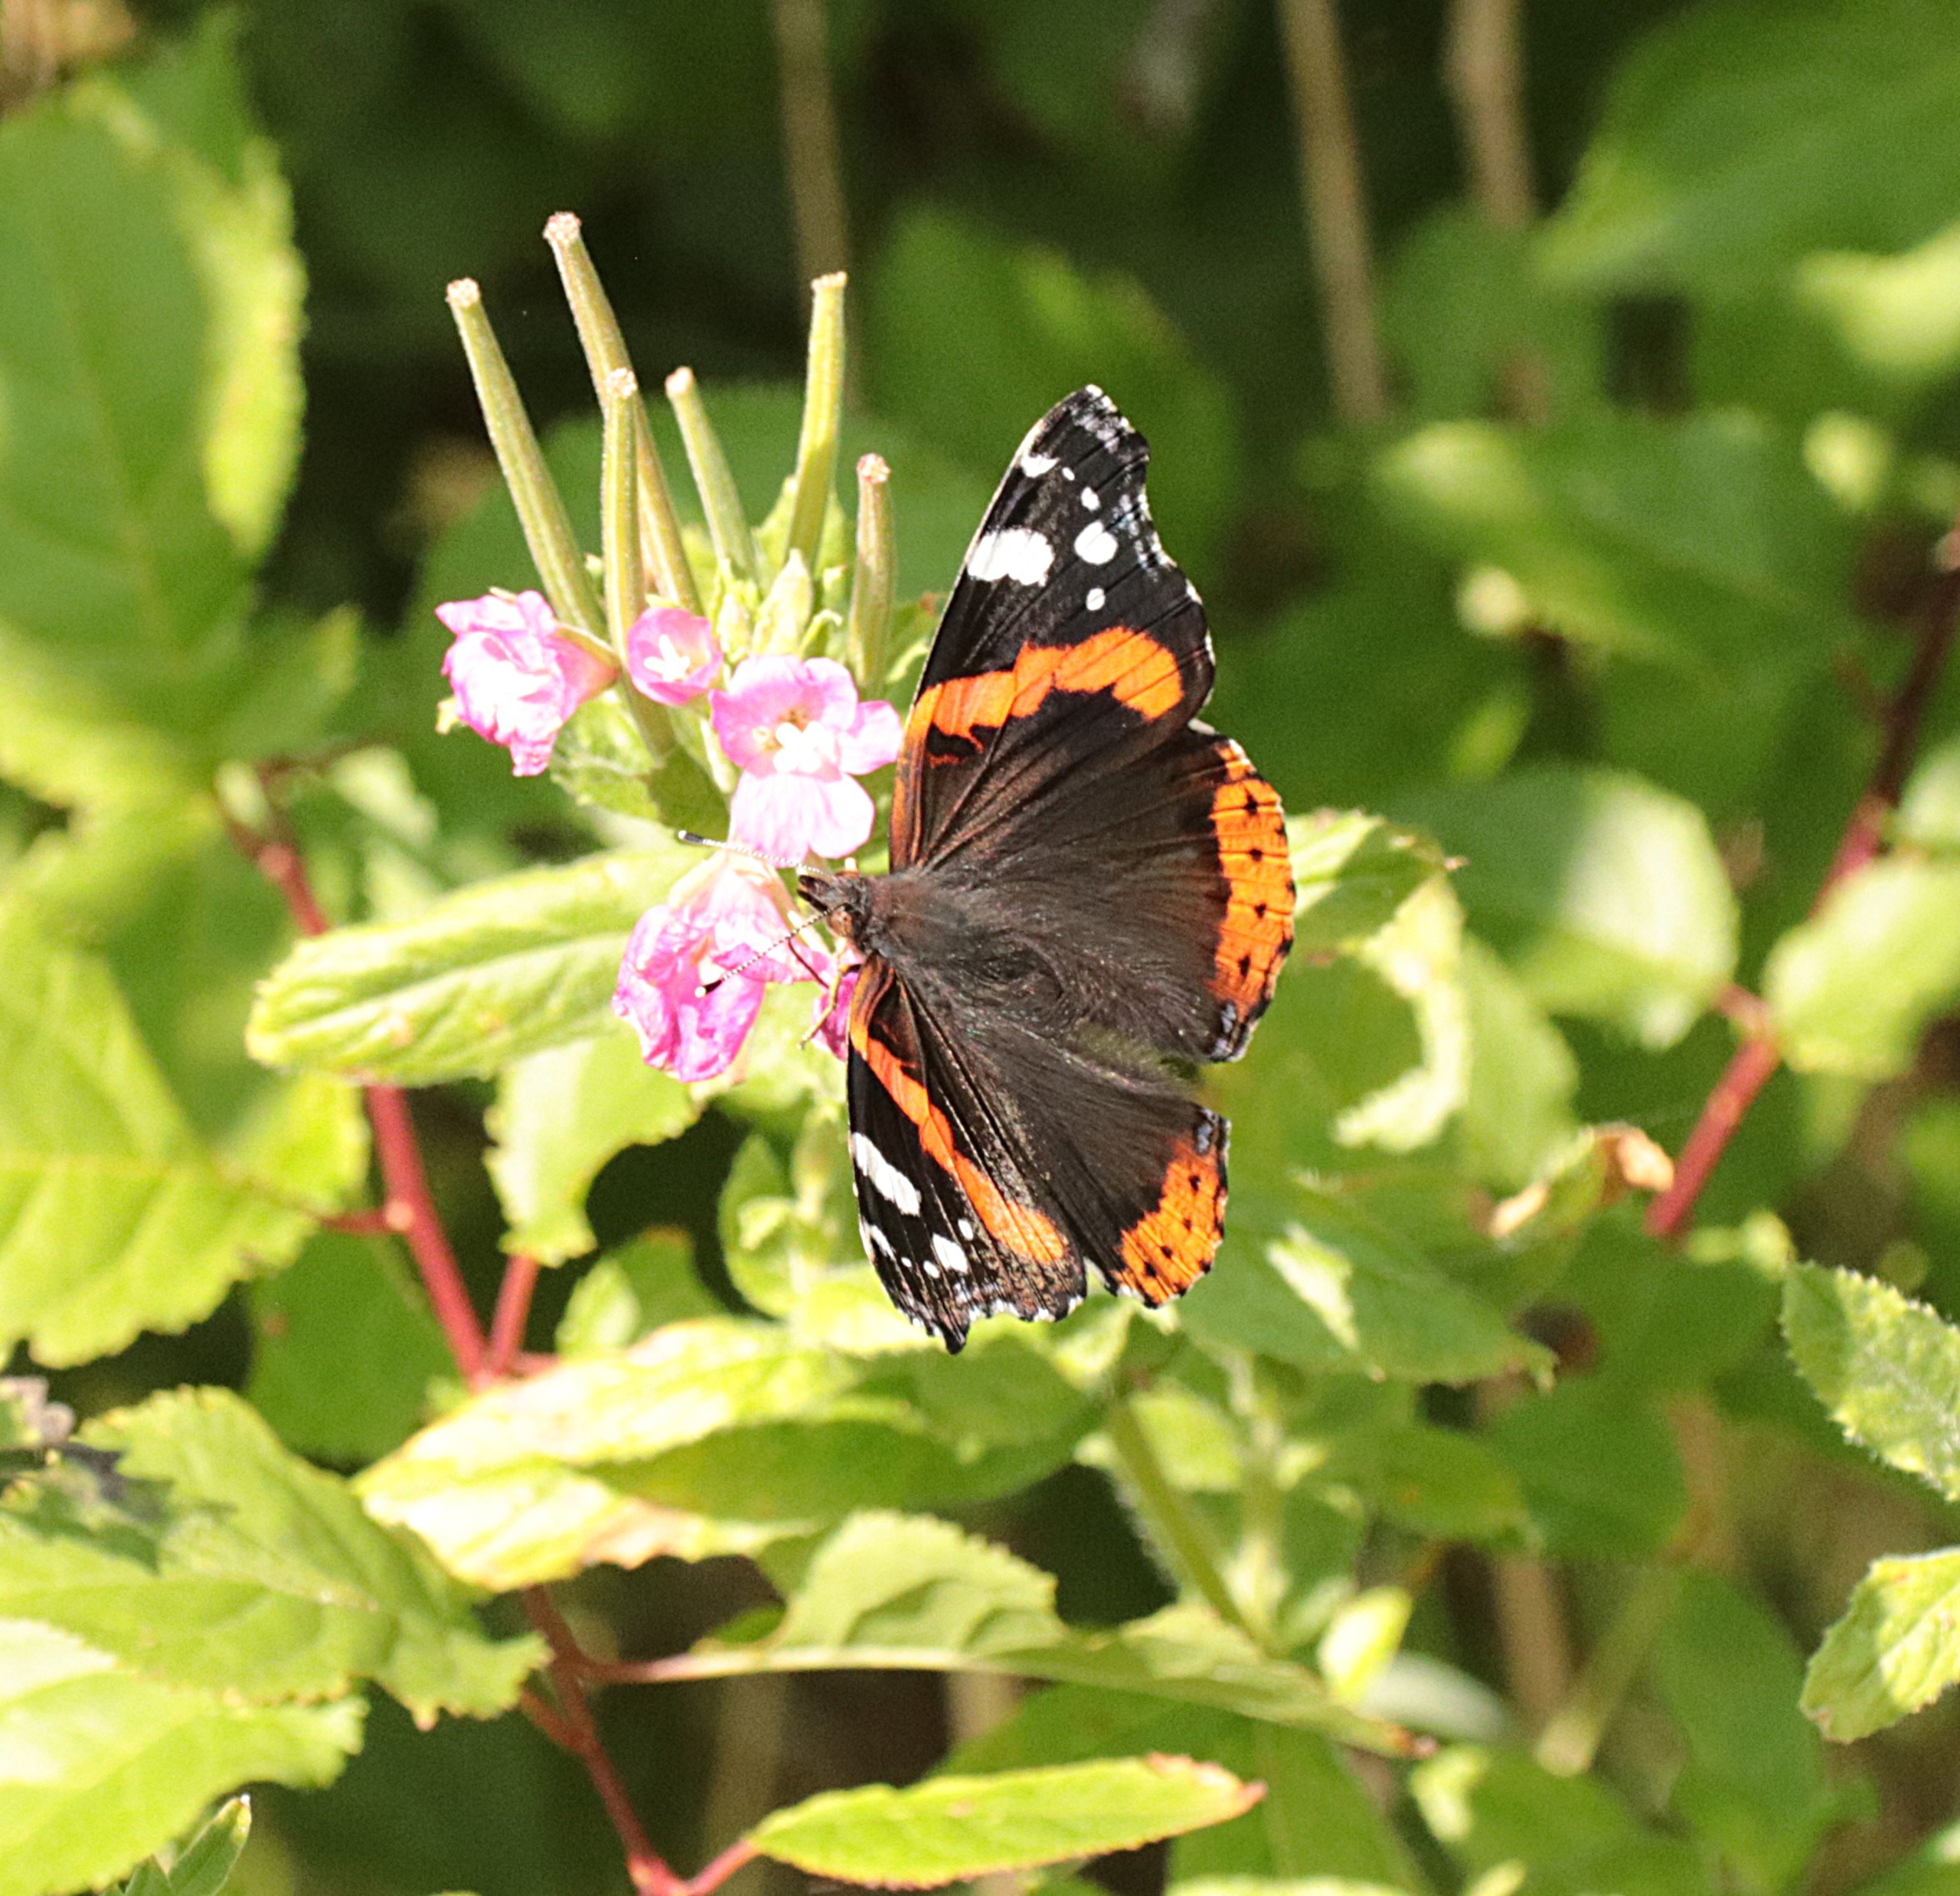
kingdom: Animalia
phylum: Arthropoda
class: Insecta
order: Lepidoptera
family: Nymphalidae
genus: Vanessa
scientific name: Vanessa atalanta
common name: Admiral
